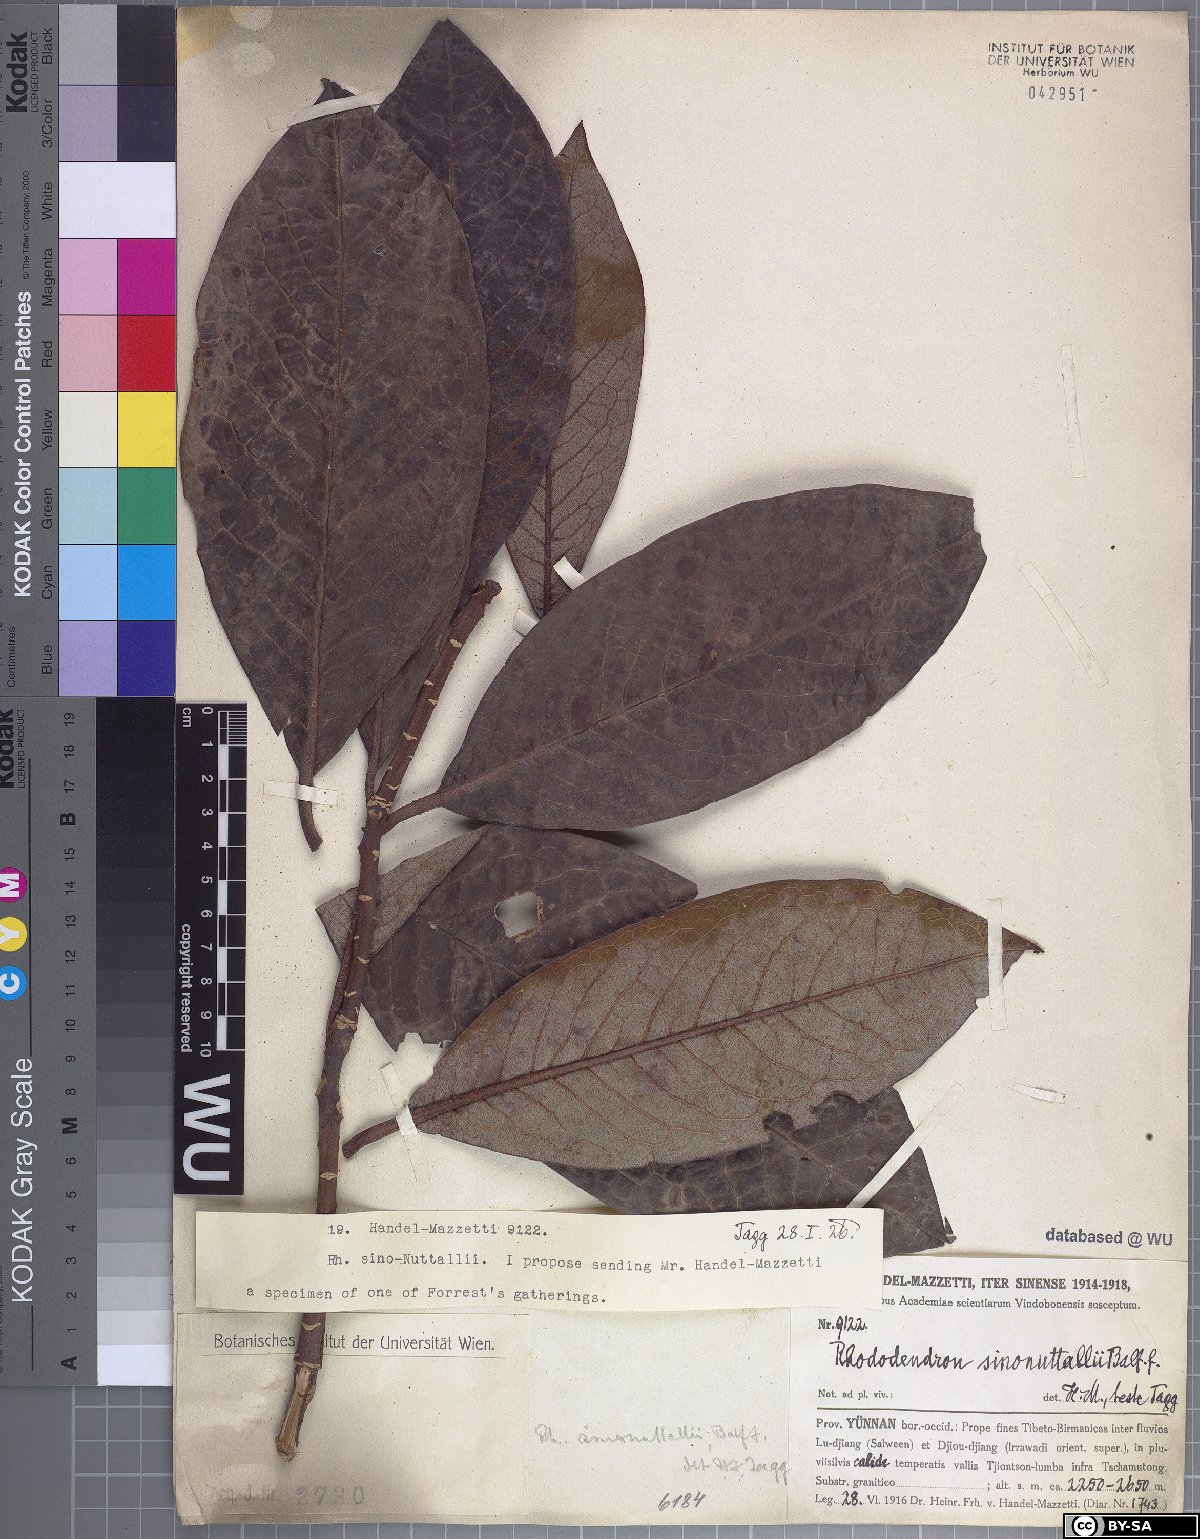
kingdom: Plantae
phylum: Tracheophyta
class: Magnoliopsida
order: Ericales
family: Ericaceae
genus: Rhododendron
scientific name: Rhododendron nuttallii
